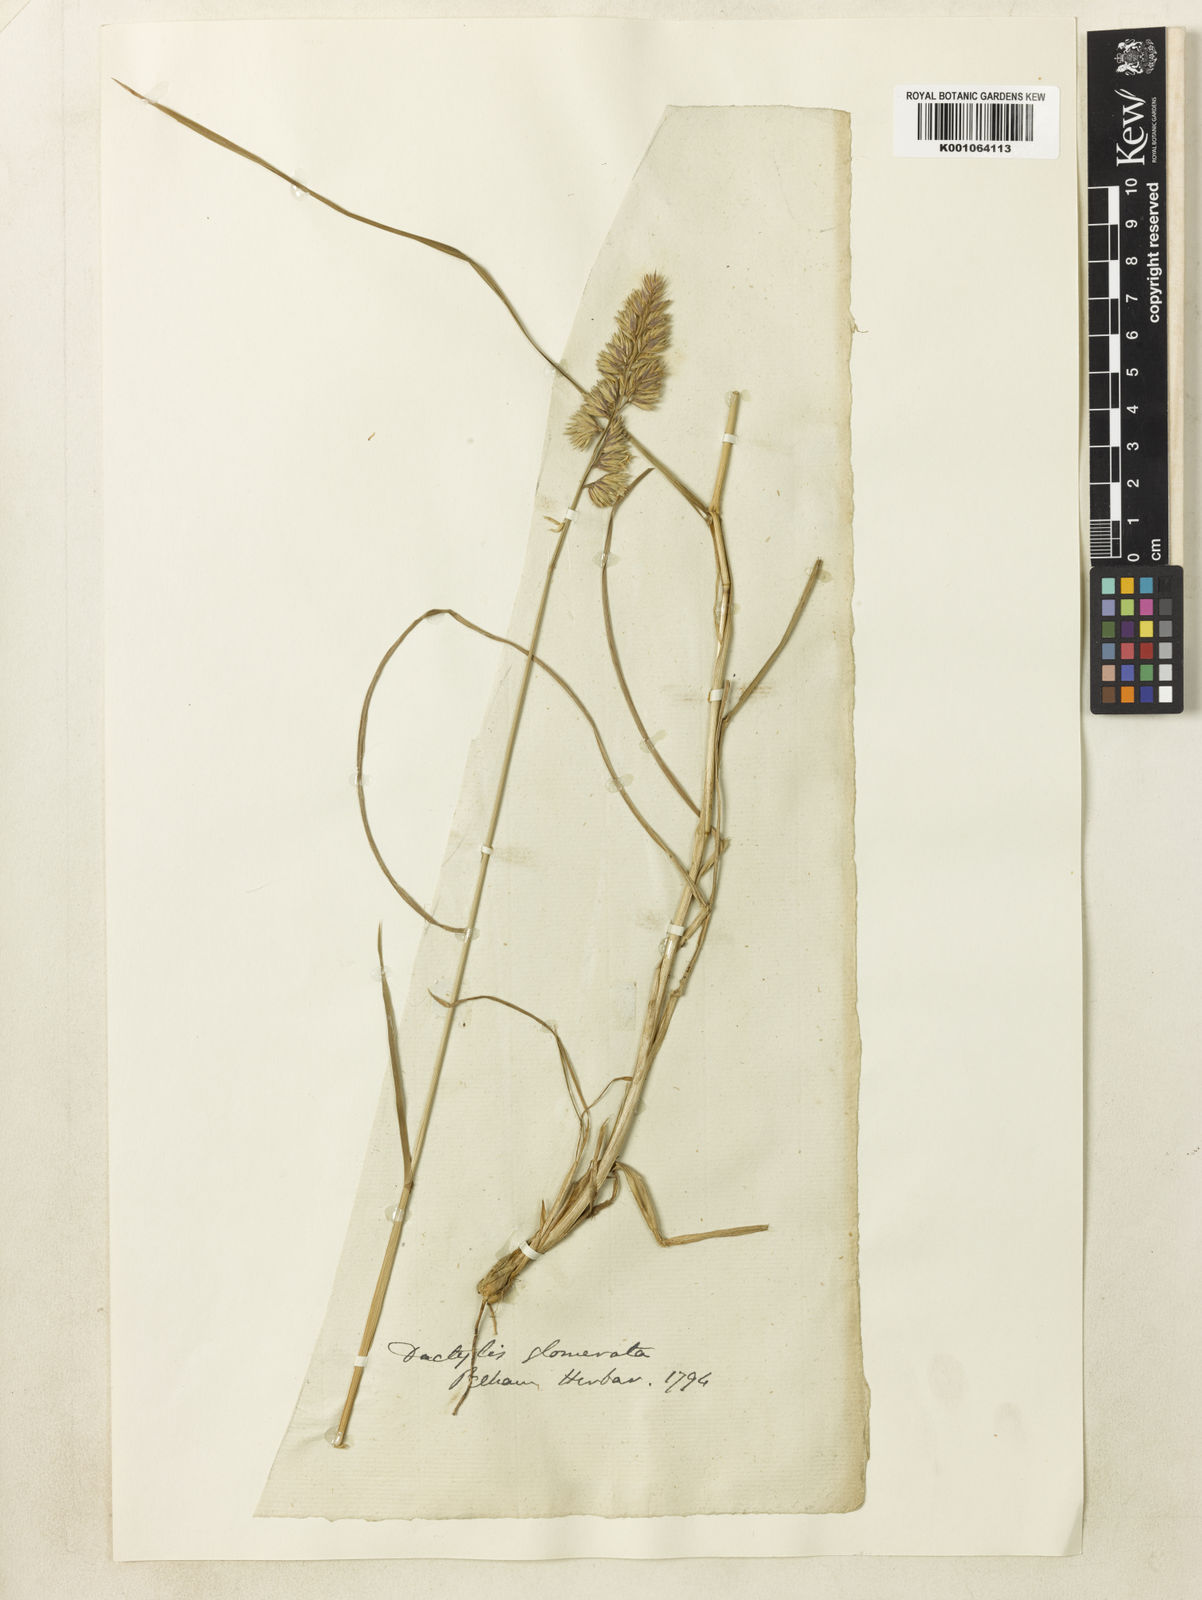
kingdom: Plantae
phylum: Tracheophyta
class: Liliopsida
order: Poales
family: Poaceae
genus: Dactylis
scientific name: Dactylis glomerata
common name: Orchardgrass
